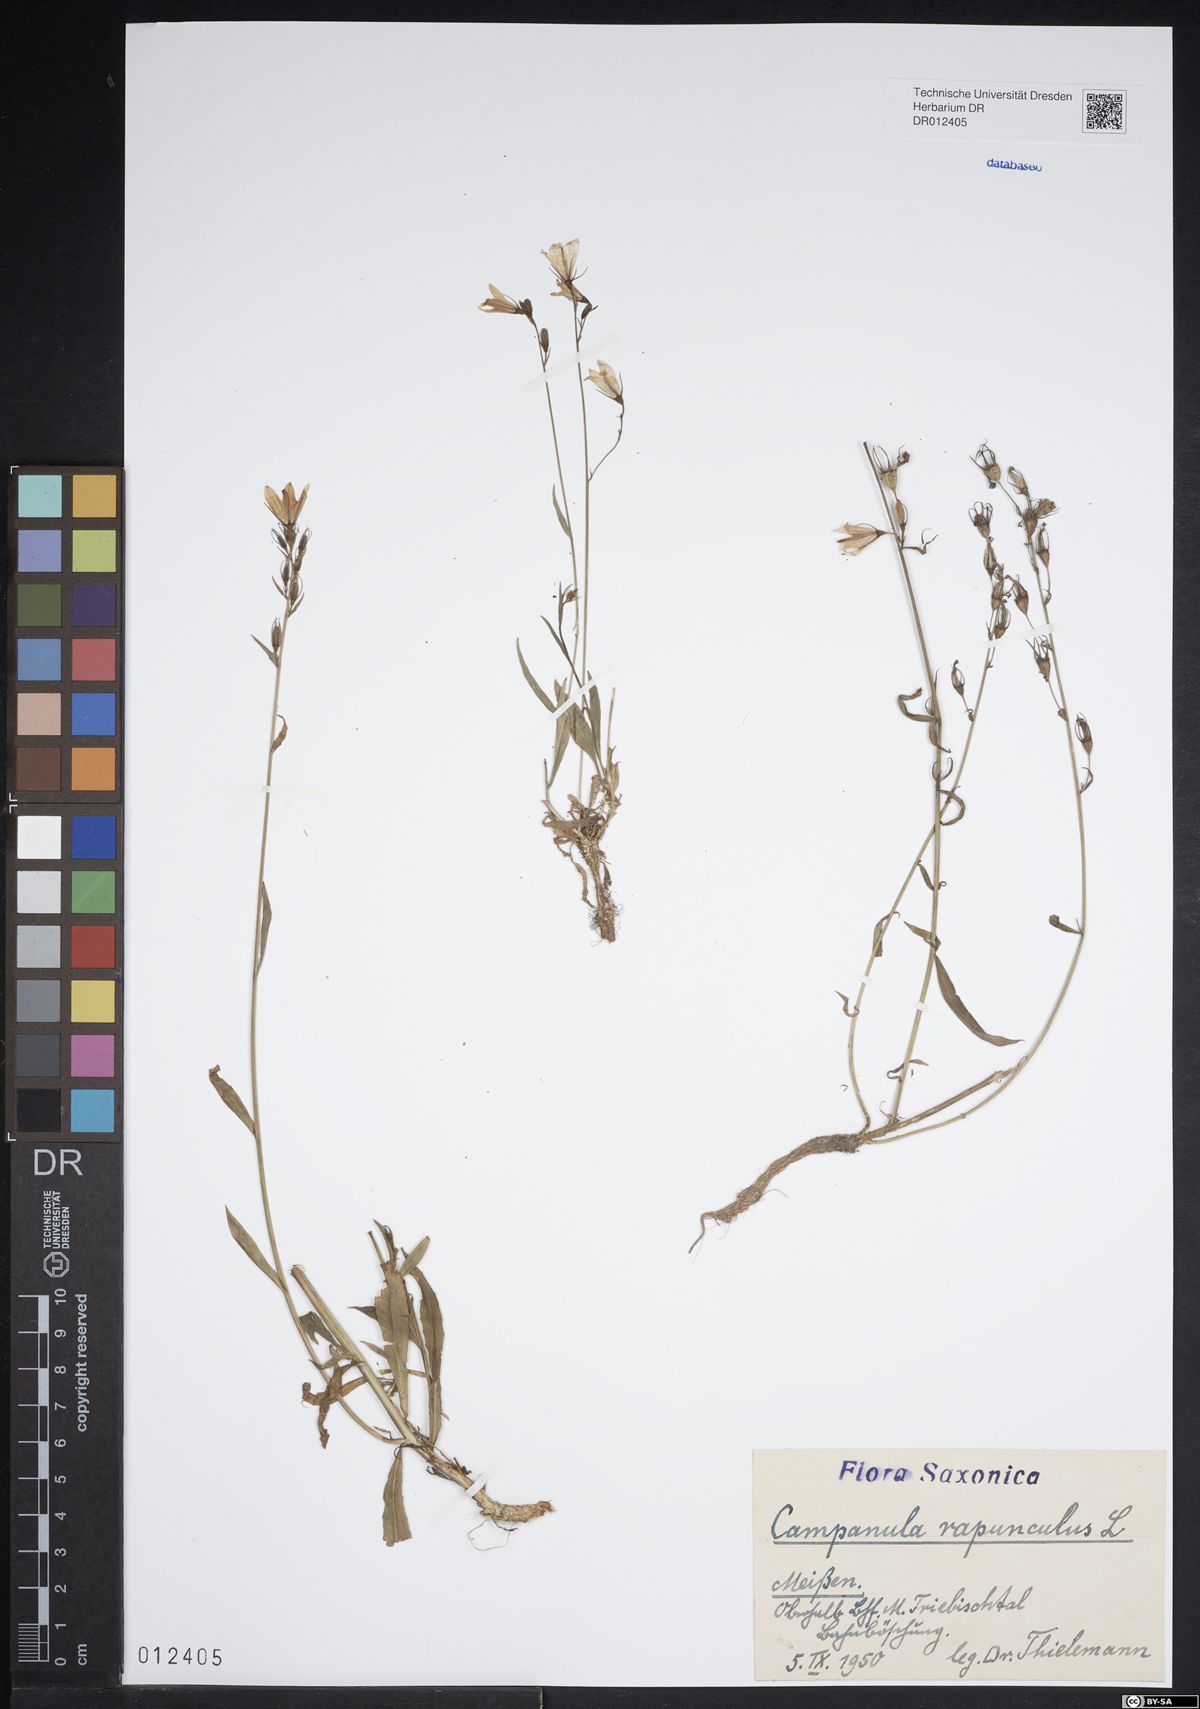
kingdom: Plantae
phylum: Tracheophyta
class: Magnoliopsida
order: Asterales
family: Campanulaceae
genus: Campanula
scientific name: Campanula rapunculoides
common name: Creeping bellflower
